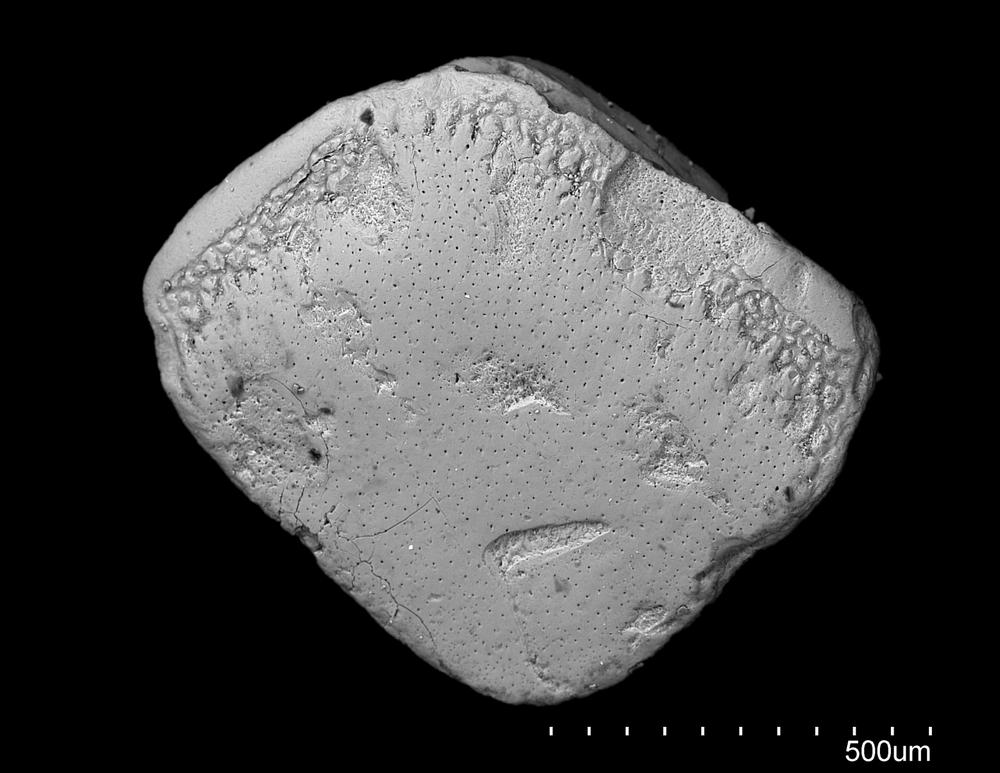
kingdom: Animalia
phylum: Chordata
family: Acanthodidae
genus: Cheiracanthus
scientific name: Cheiracanthus
